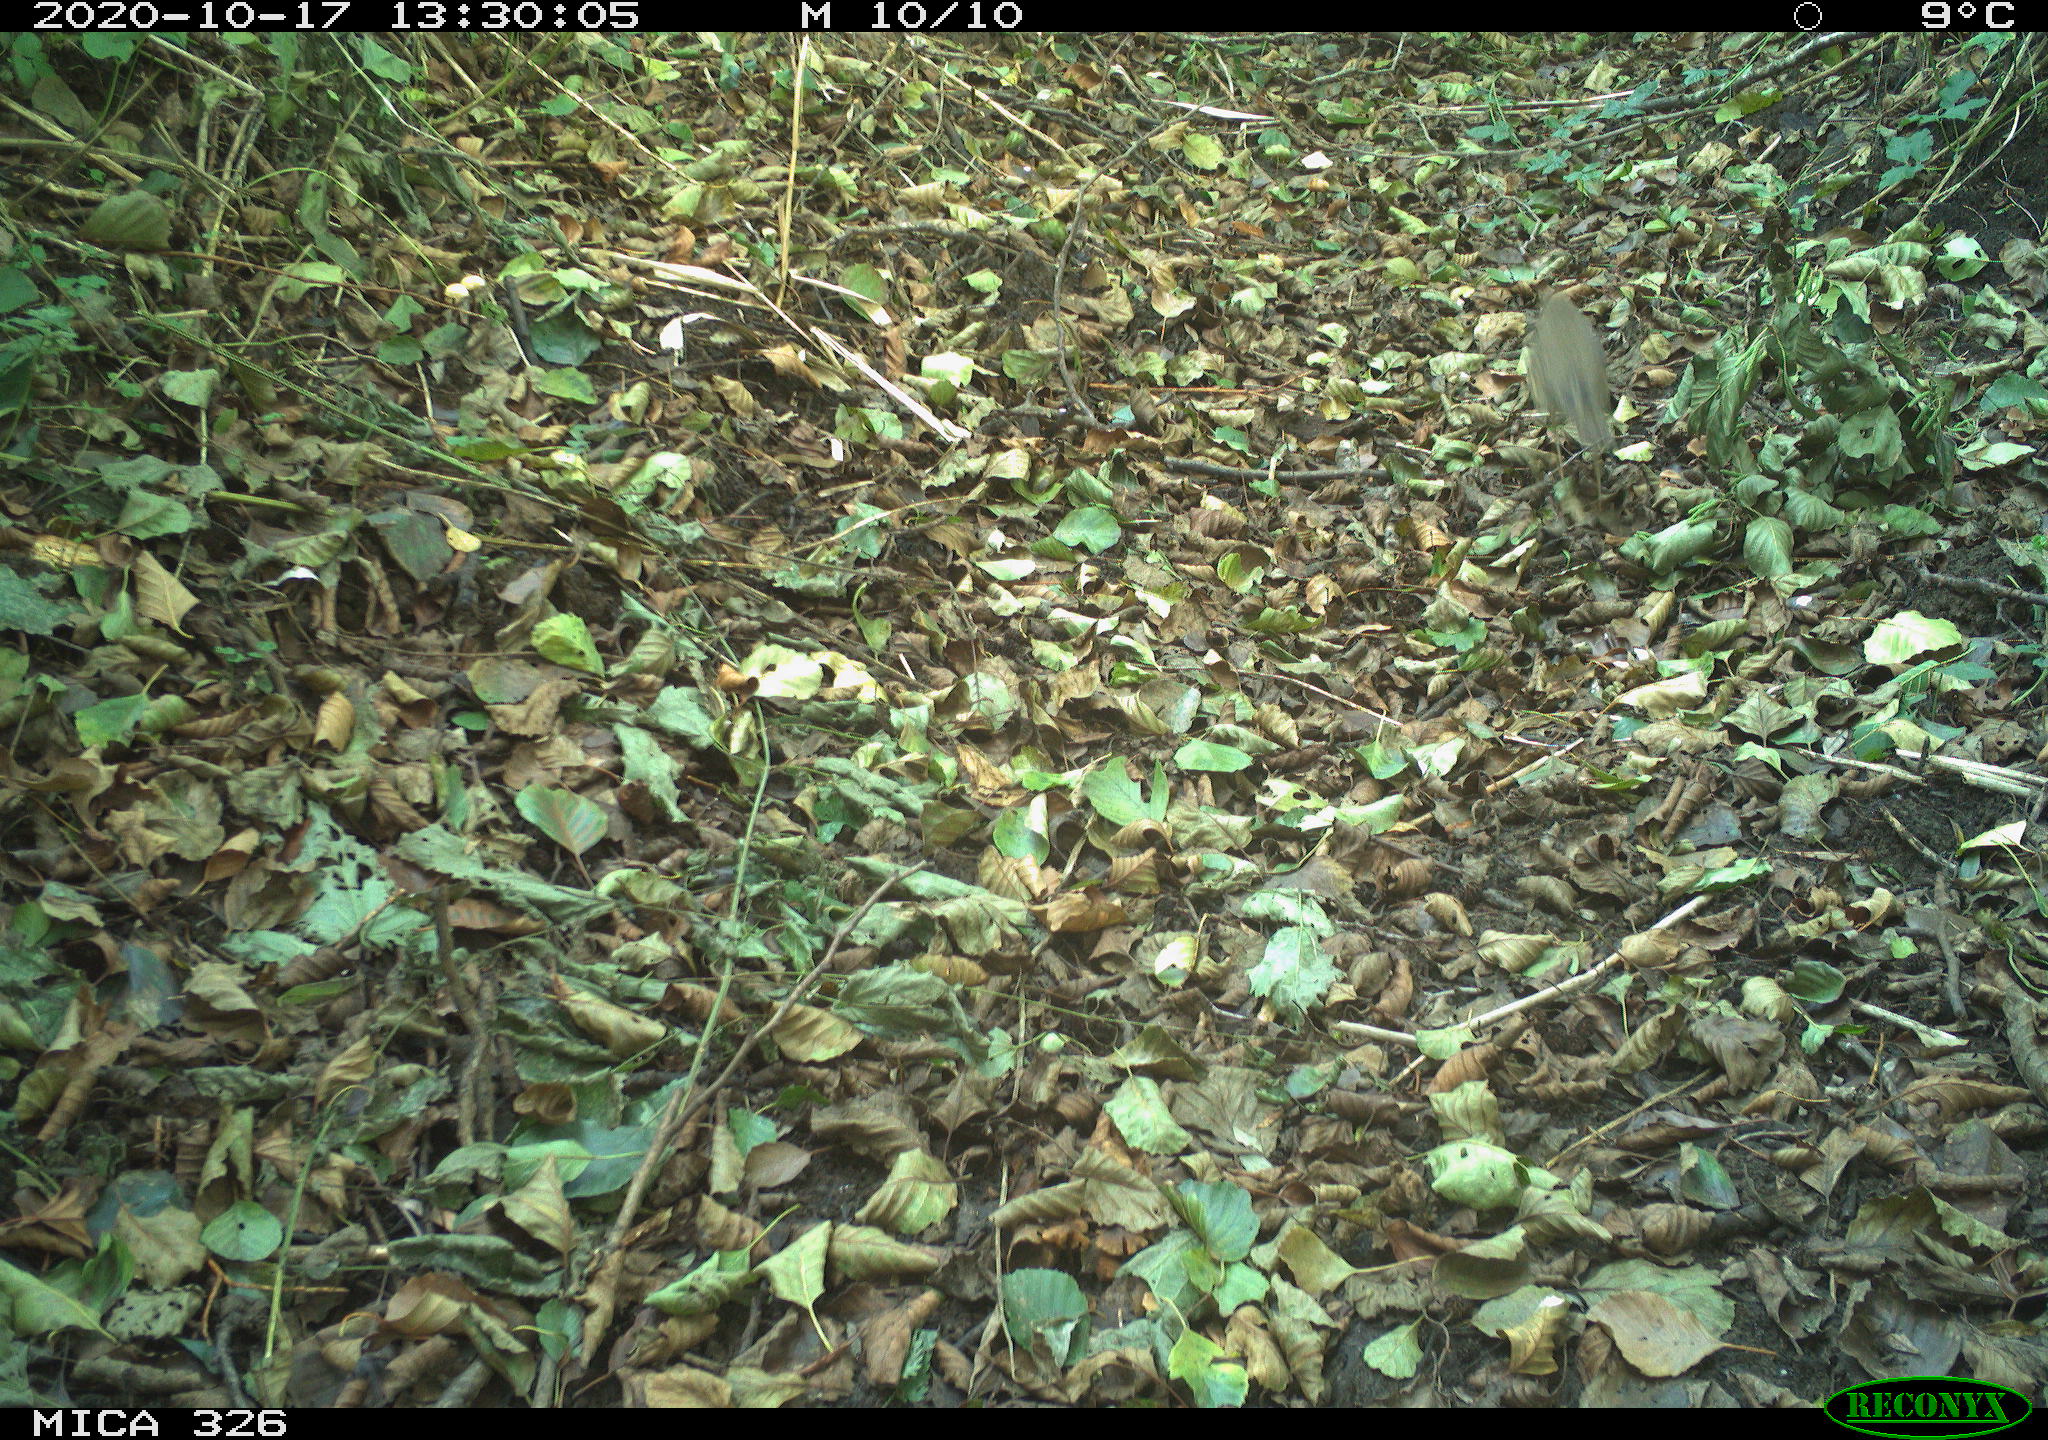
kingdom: Animalia
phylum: Chordata
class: Aves
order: Passeriformes
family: Turdidae
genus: Turdus
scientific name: Turdus philomelos
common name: Song thrush
